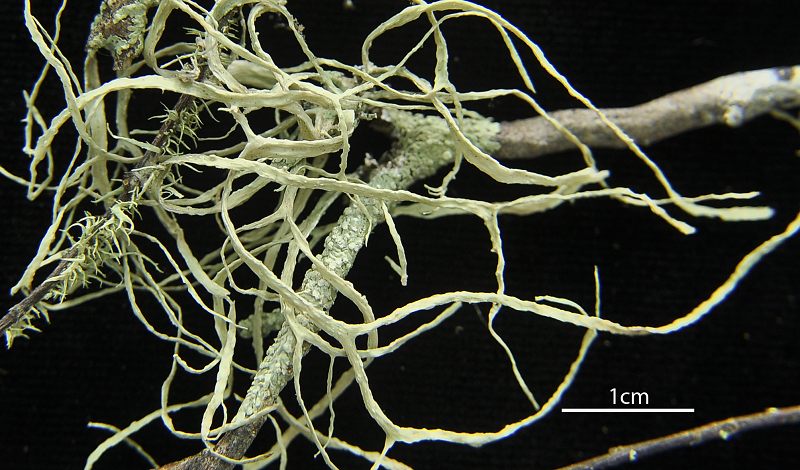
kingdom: Fungi
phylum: Ascomycota
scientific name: Ascomycota
